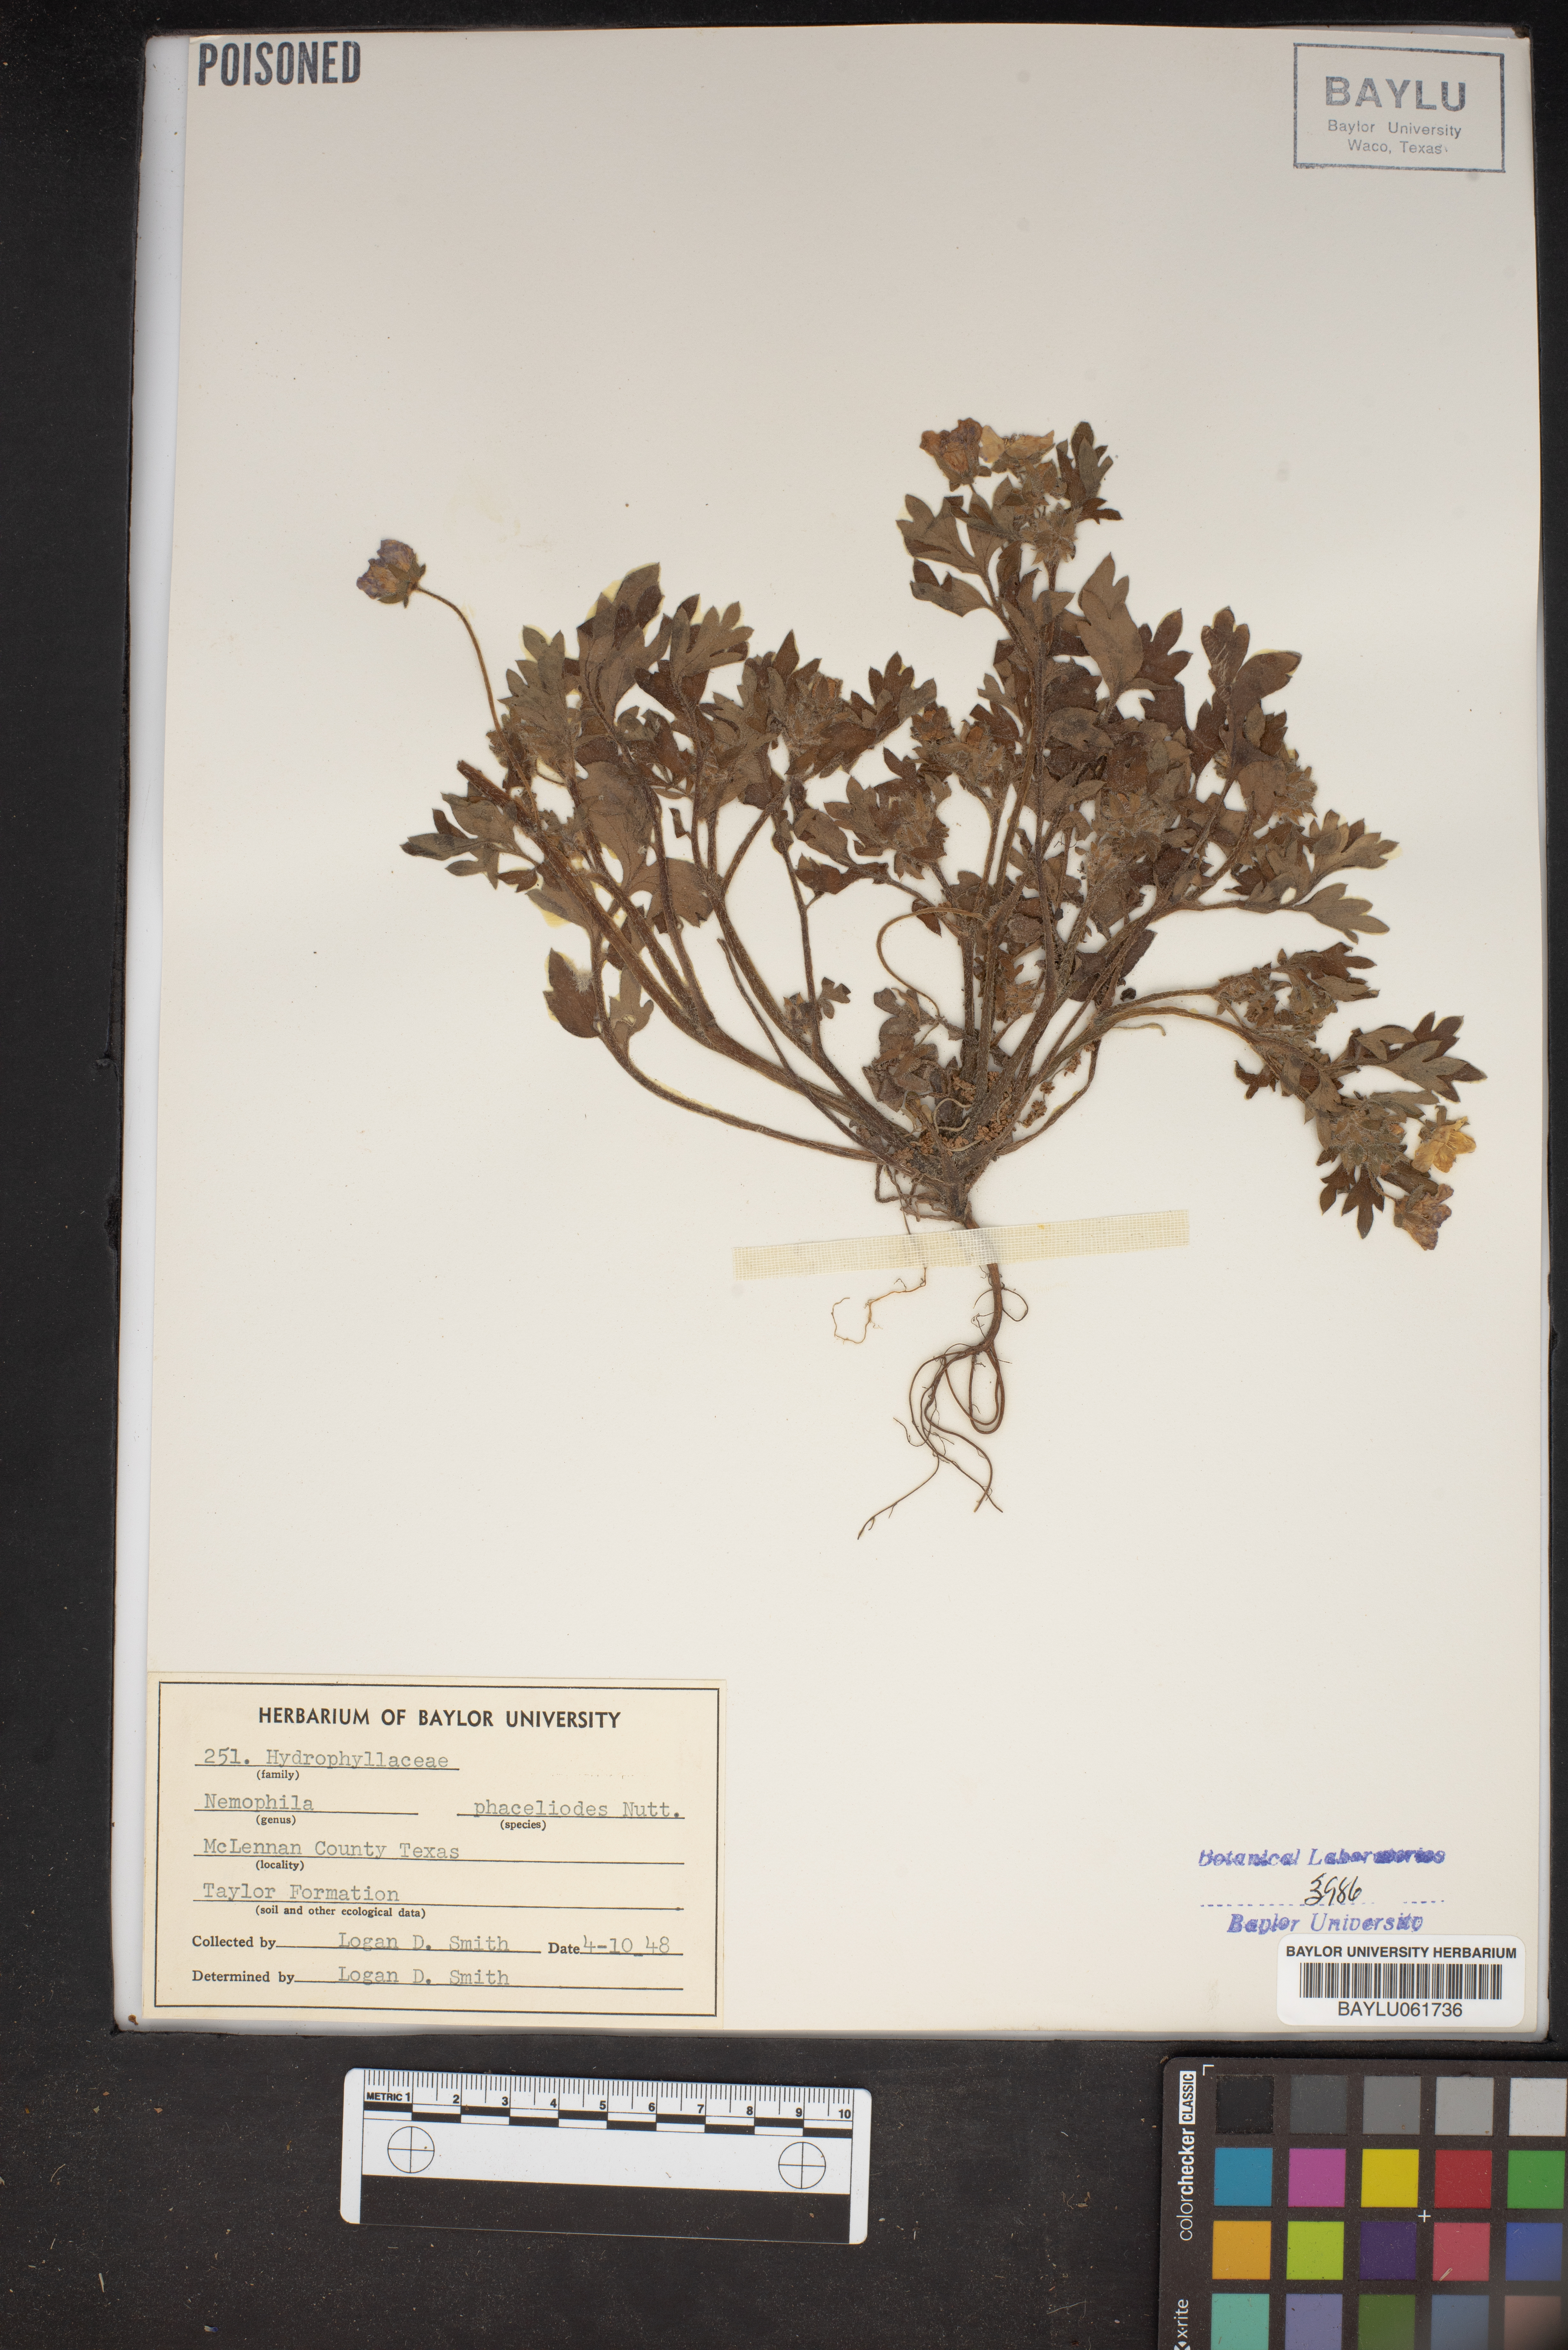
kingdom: Plantae
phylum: Tracheophyta
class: Magnoliopsida
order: Boraginales
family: Hydrophyllaceae
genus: Nemophila
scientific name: Nemophila phacelioides
